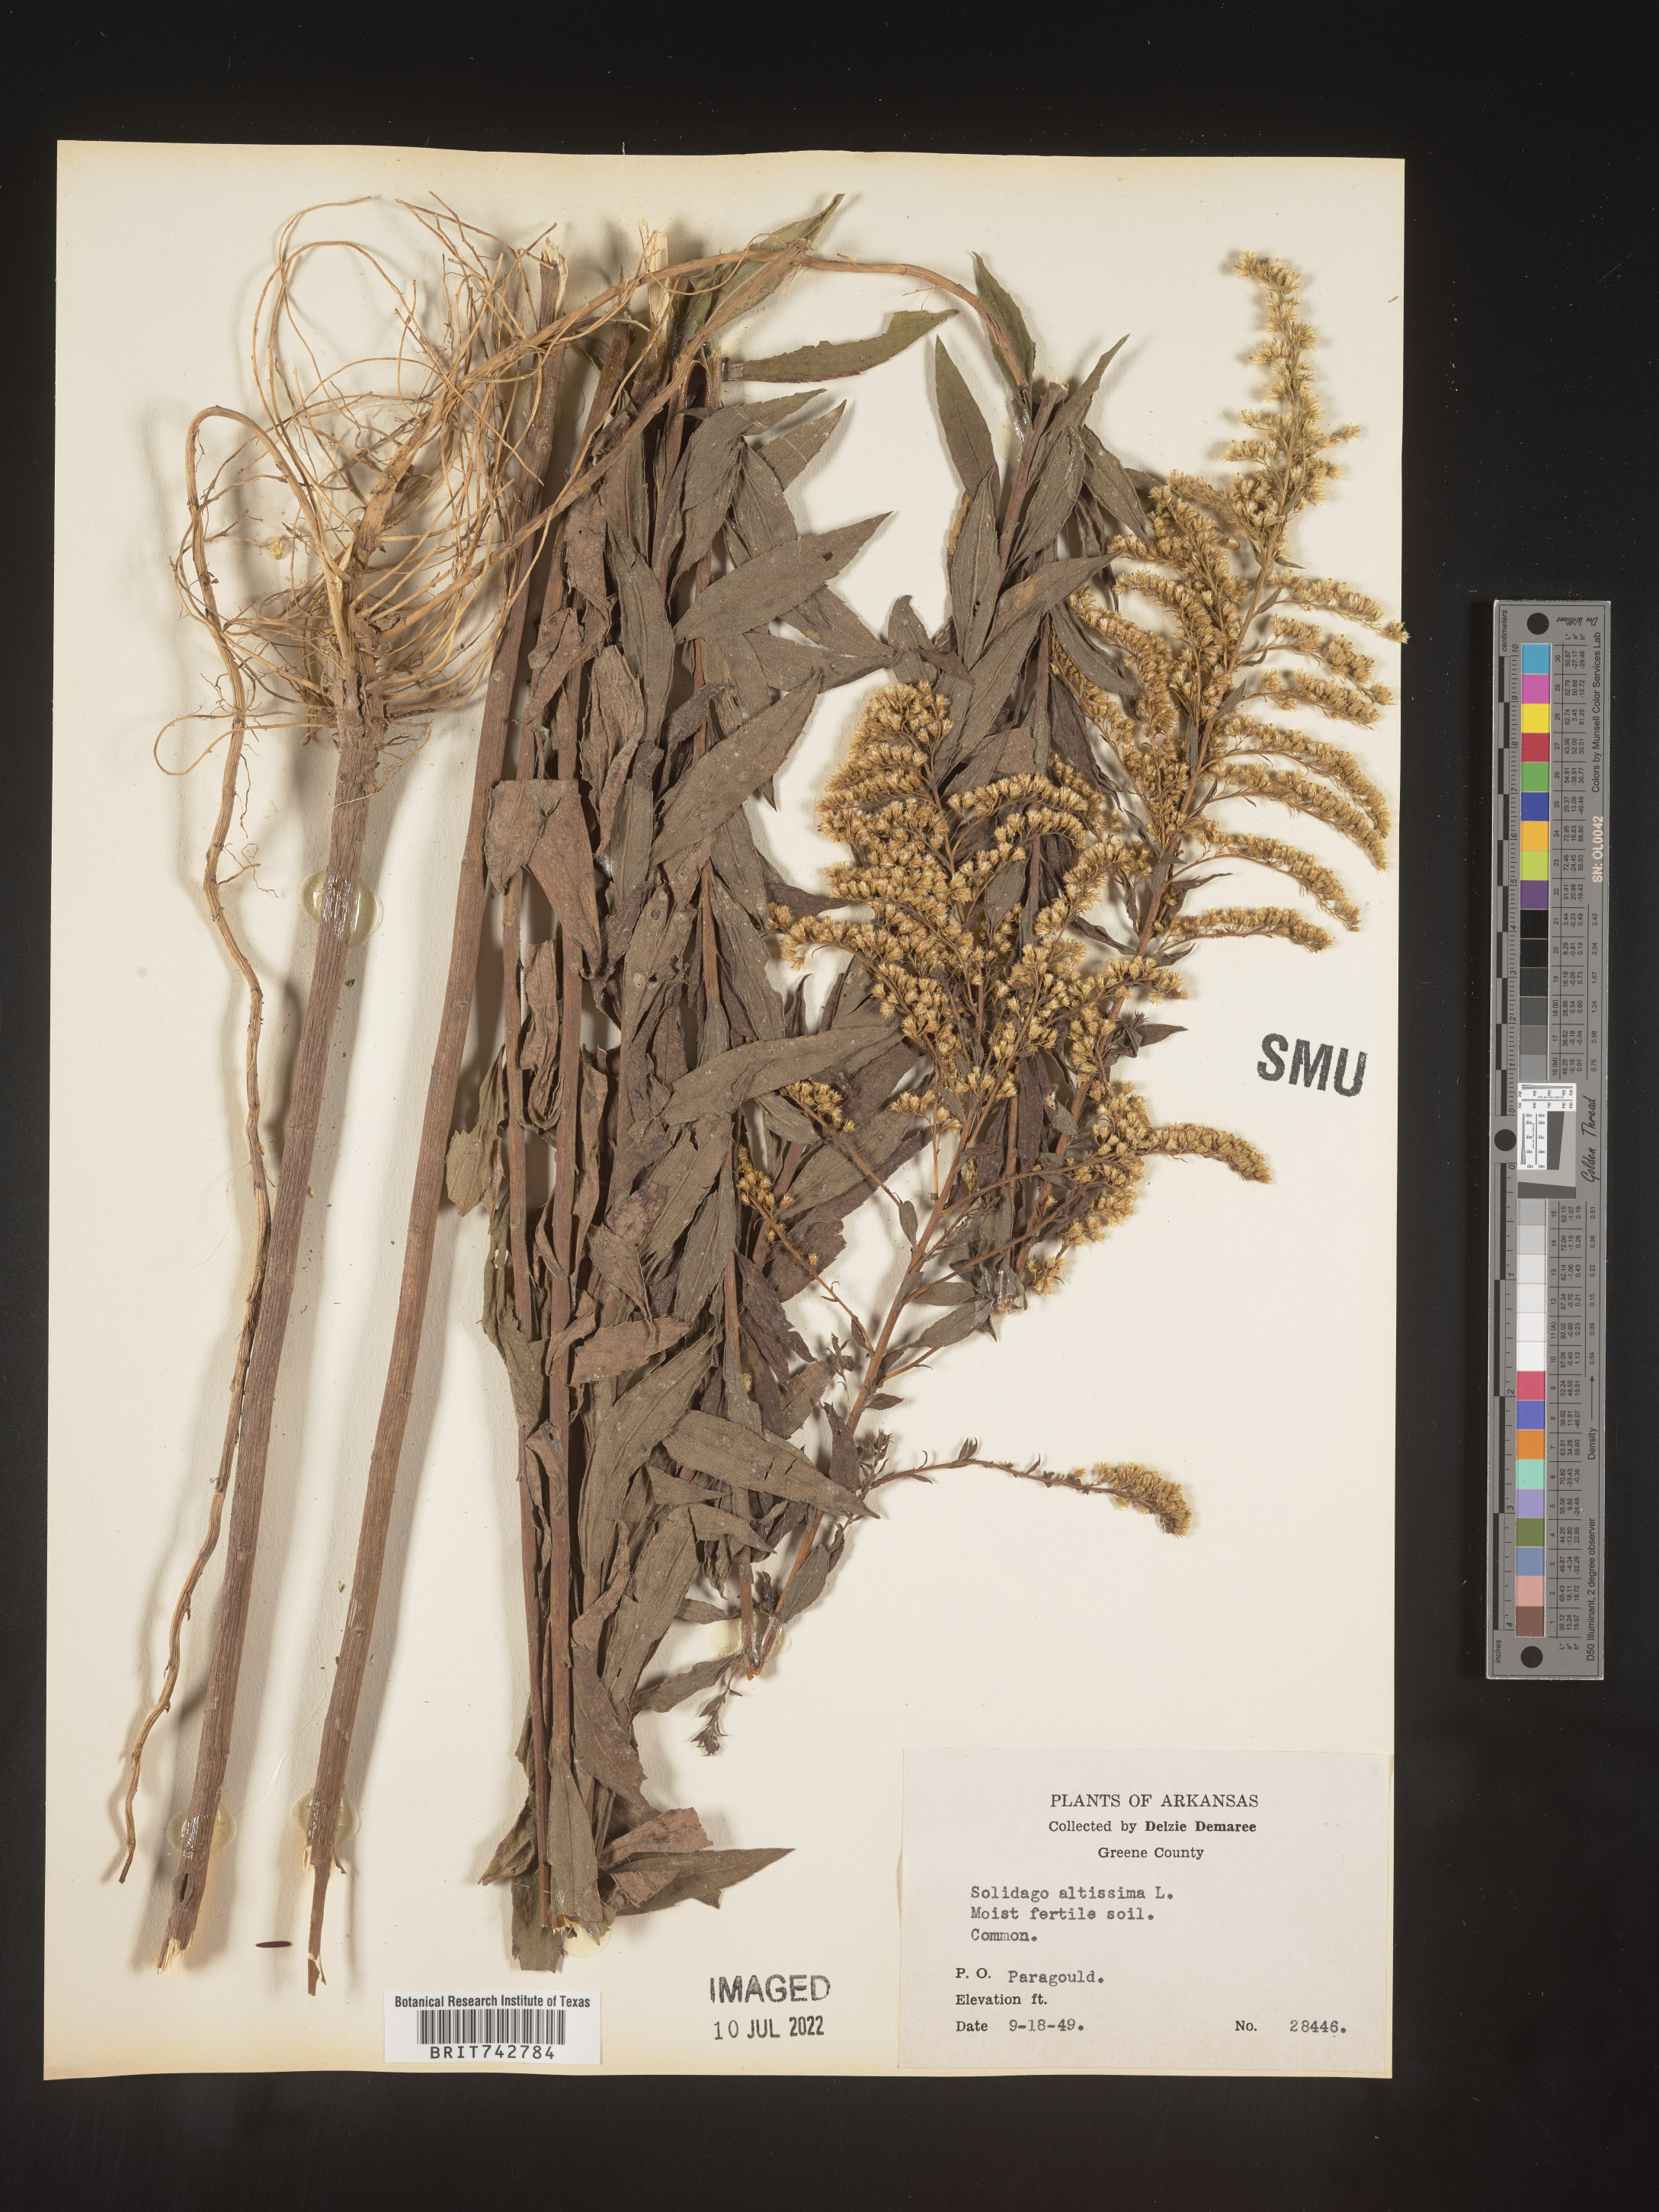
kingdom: Plantae
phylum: Tracheophyta
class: Magnoliopsida
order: Asterales
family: Asteraceae
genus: Solidago
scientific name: Solidago altissima
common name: Late goldenrod
